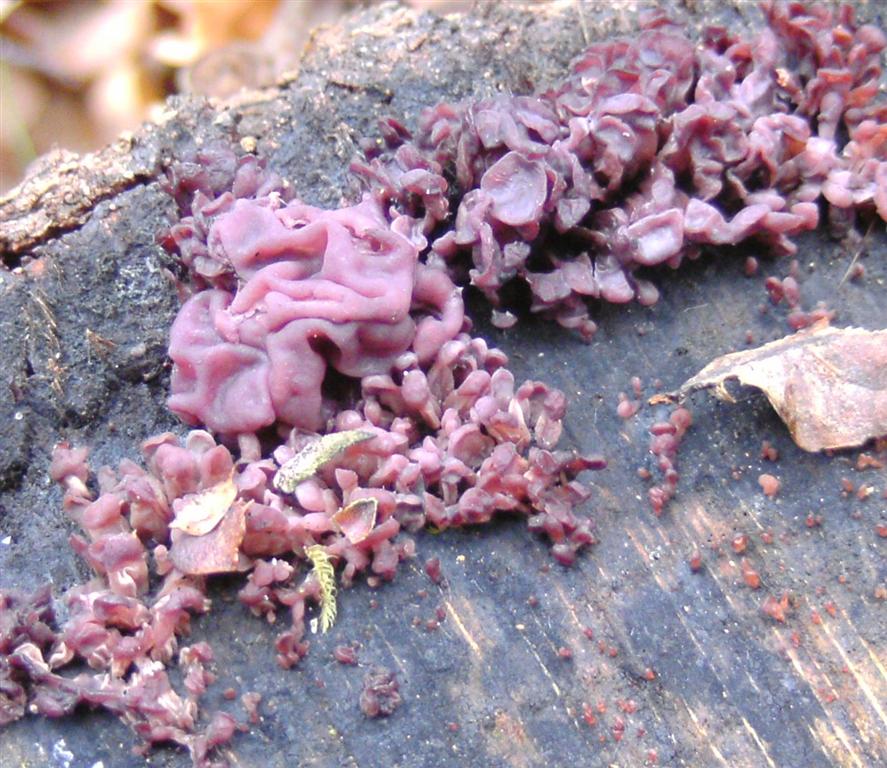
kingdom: Fungi
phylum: Ascomycota
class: Leotiomycetes
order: Helotiales
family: Gelatinodiscaceae
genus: Ascocoryne
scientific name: Ascocoryne sarcoides
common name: rødlilla sejskive
